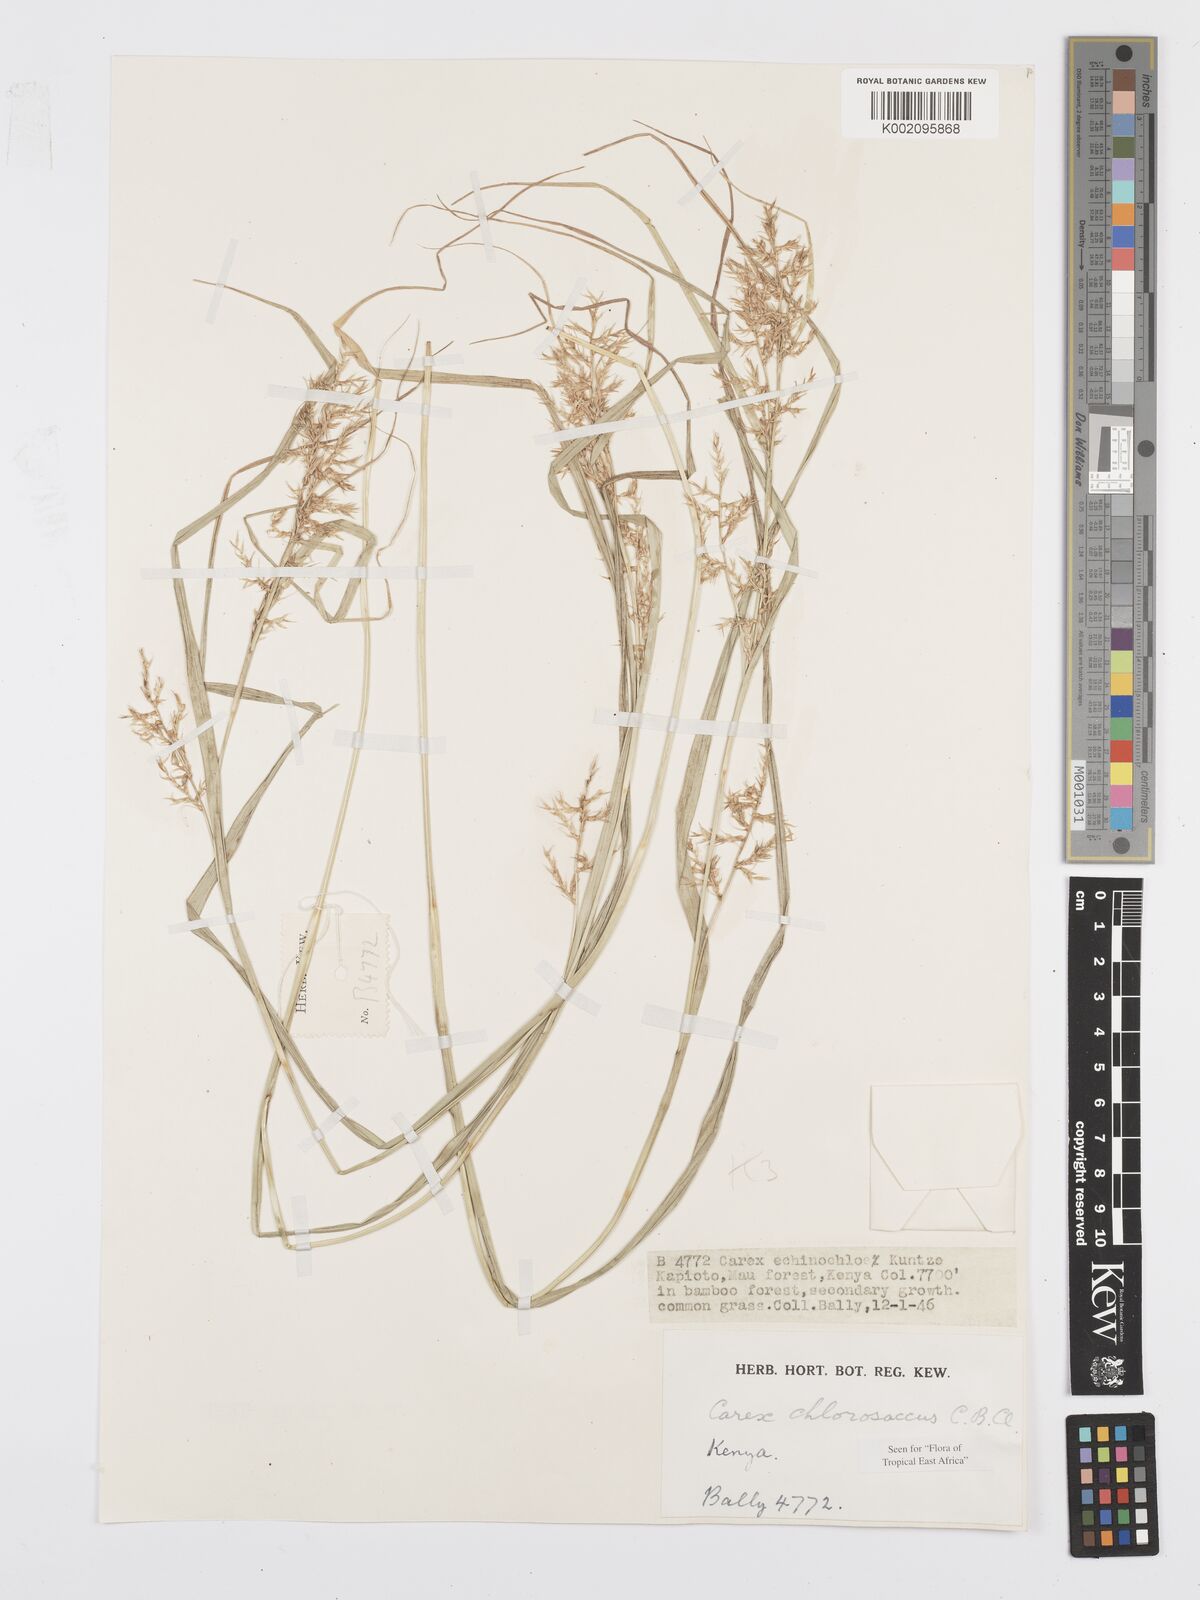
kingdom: Plantae
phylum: Tracheophyta
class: Liliopsida
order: Poales
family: Cyperaceae
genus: Carex
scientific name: Carex chlorosaccus
